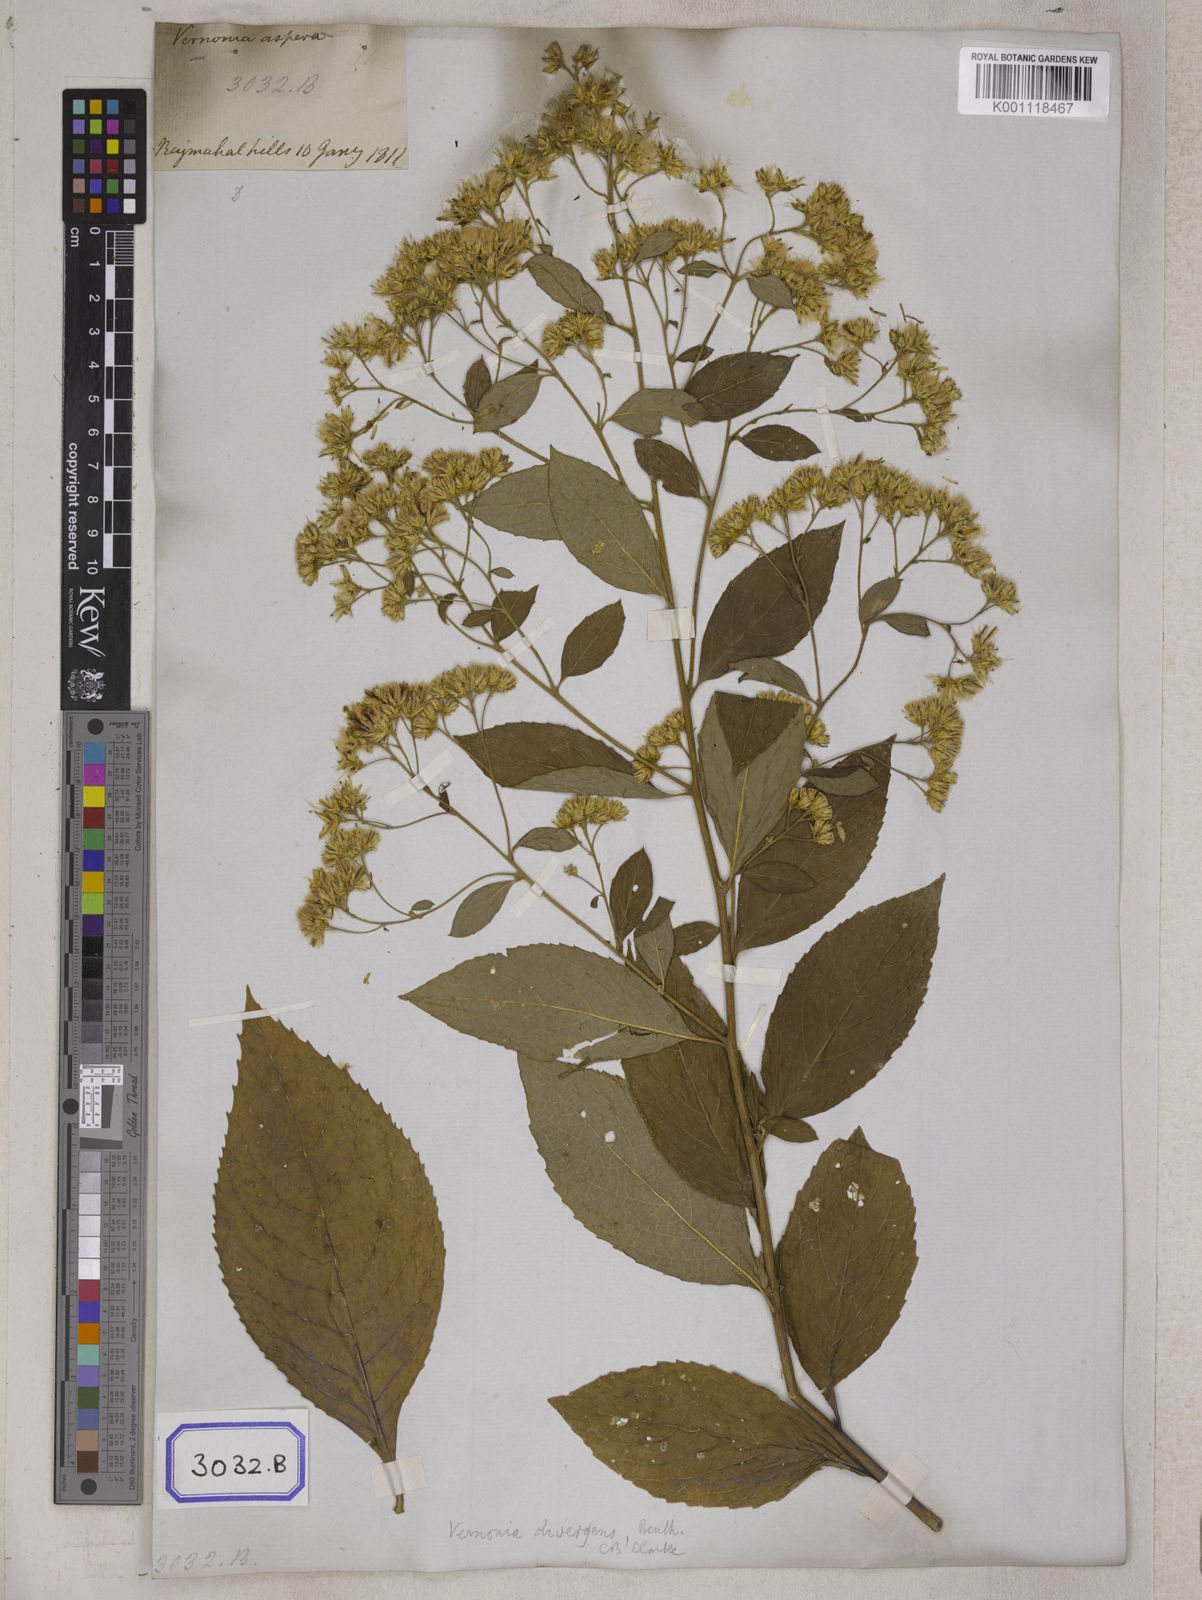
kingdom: Plantae
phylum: Tracheophyta
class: Magnoliopsida
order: Asterales
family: Asteraceae
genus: Acilepis
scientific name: Acilepis divergens
